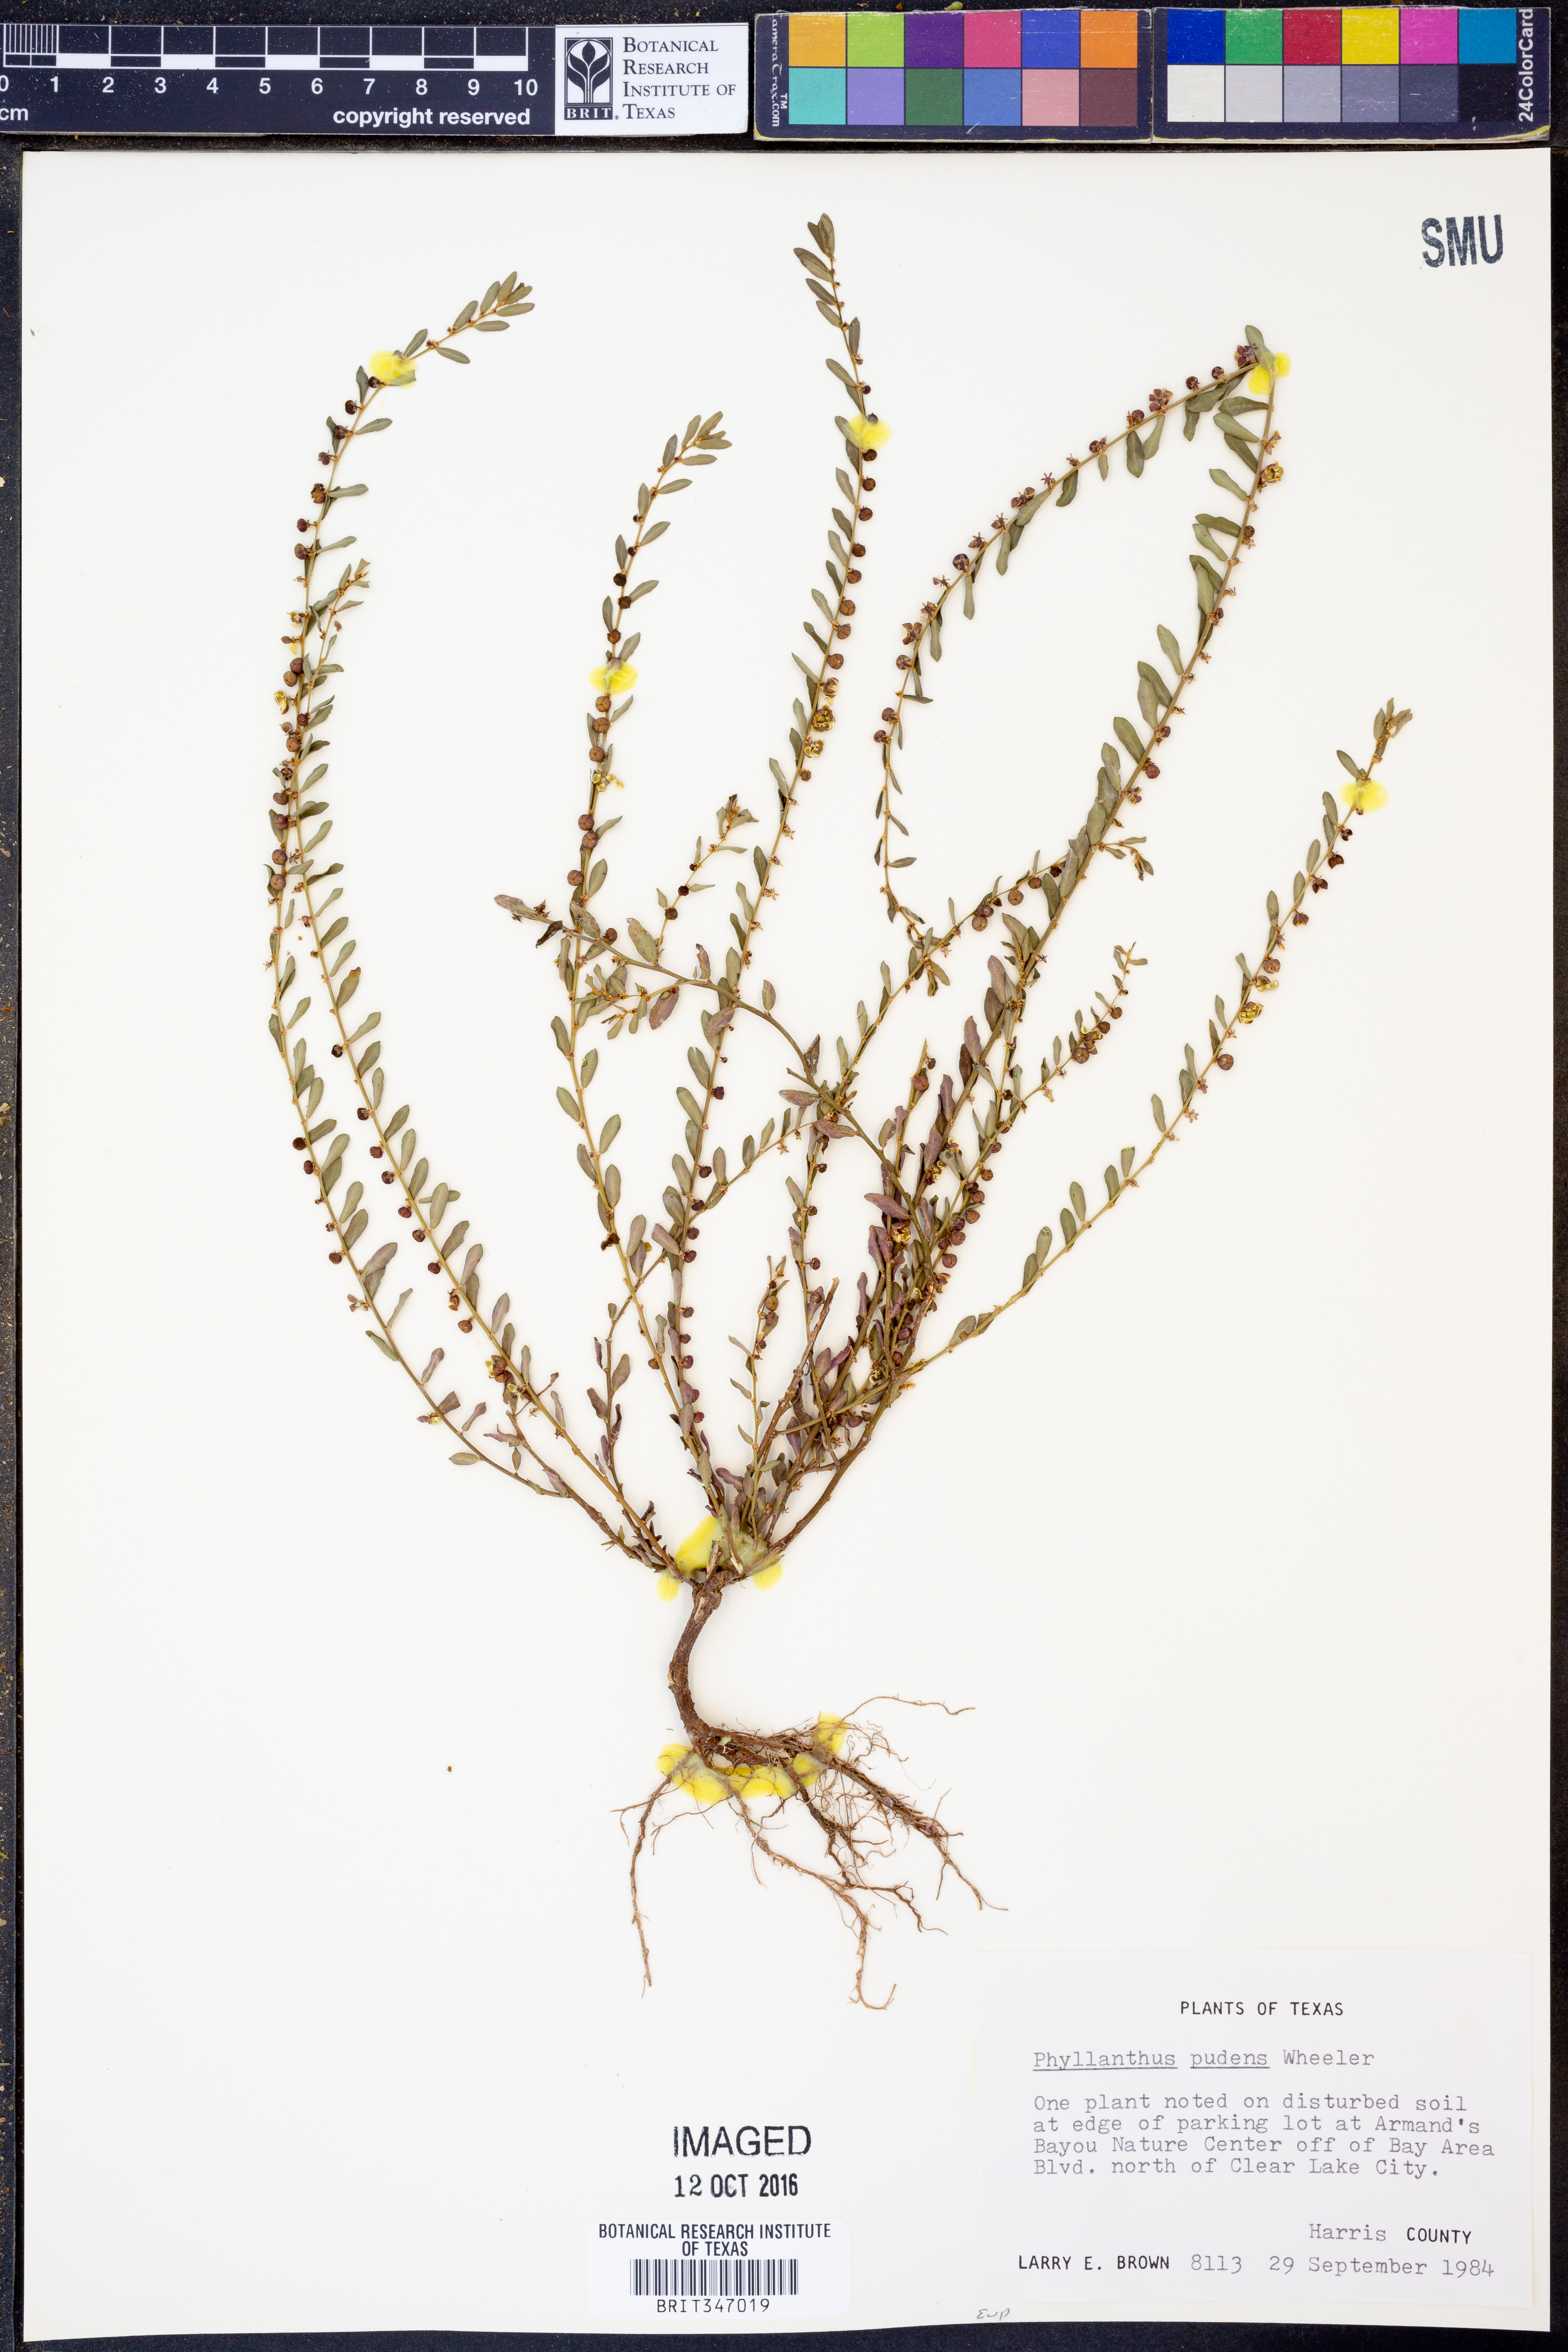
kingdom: Plantae
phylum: Tracheophyta
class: Magnoliopsida
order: Malpighiales
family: Phyllanthaceae
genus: Phyllanthus
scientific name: Phyllanthus evanescens
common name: Birdseed leaf-flower
